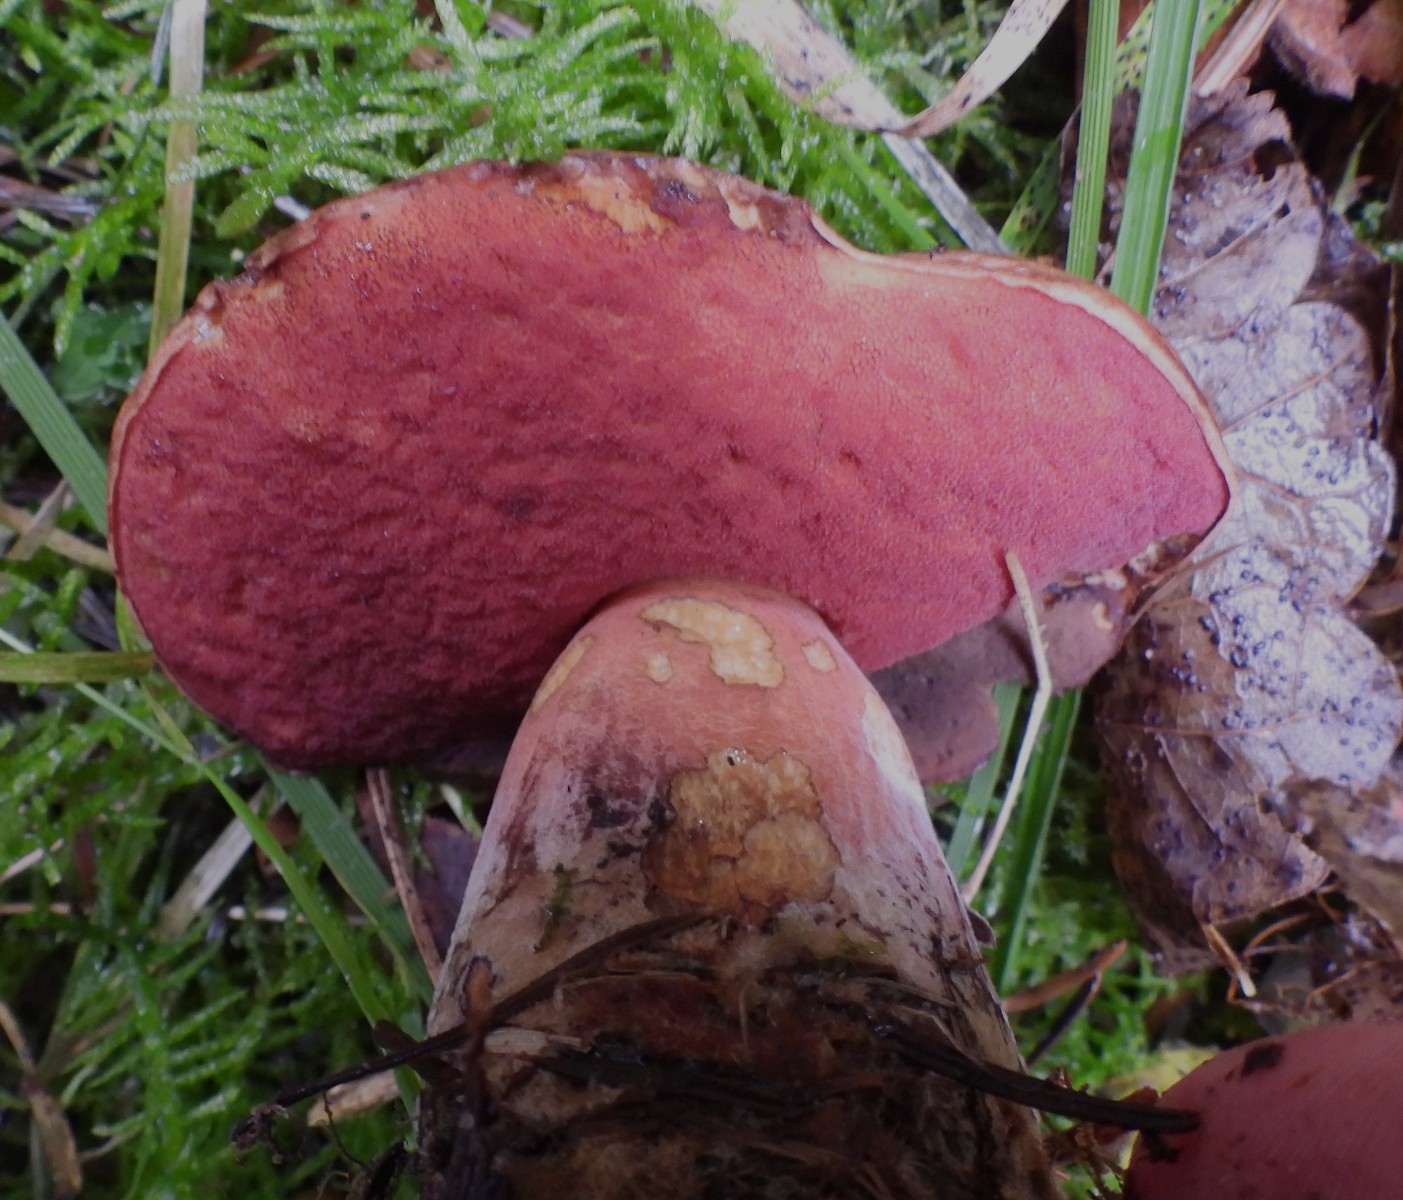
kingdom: Fungi
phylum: Basidiomycota
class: Agaricomycetes
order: Boletales
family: Boletaceae
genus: Neoboletus
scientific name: Neoboletus erythropus
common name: punktstokket indigorørhat
